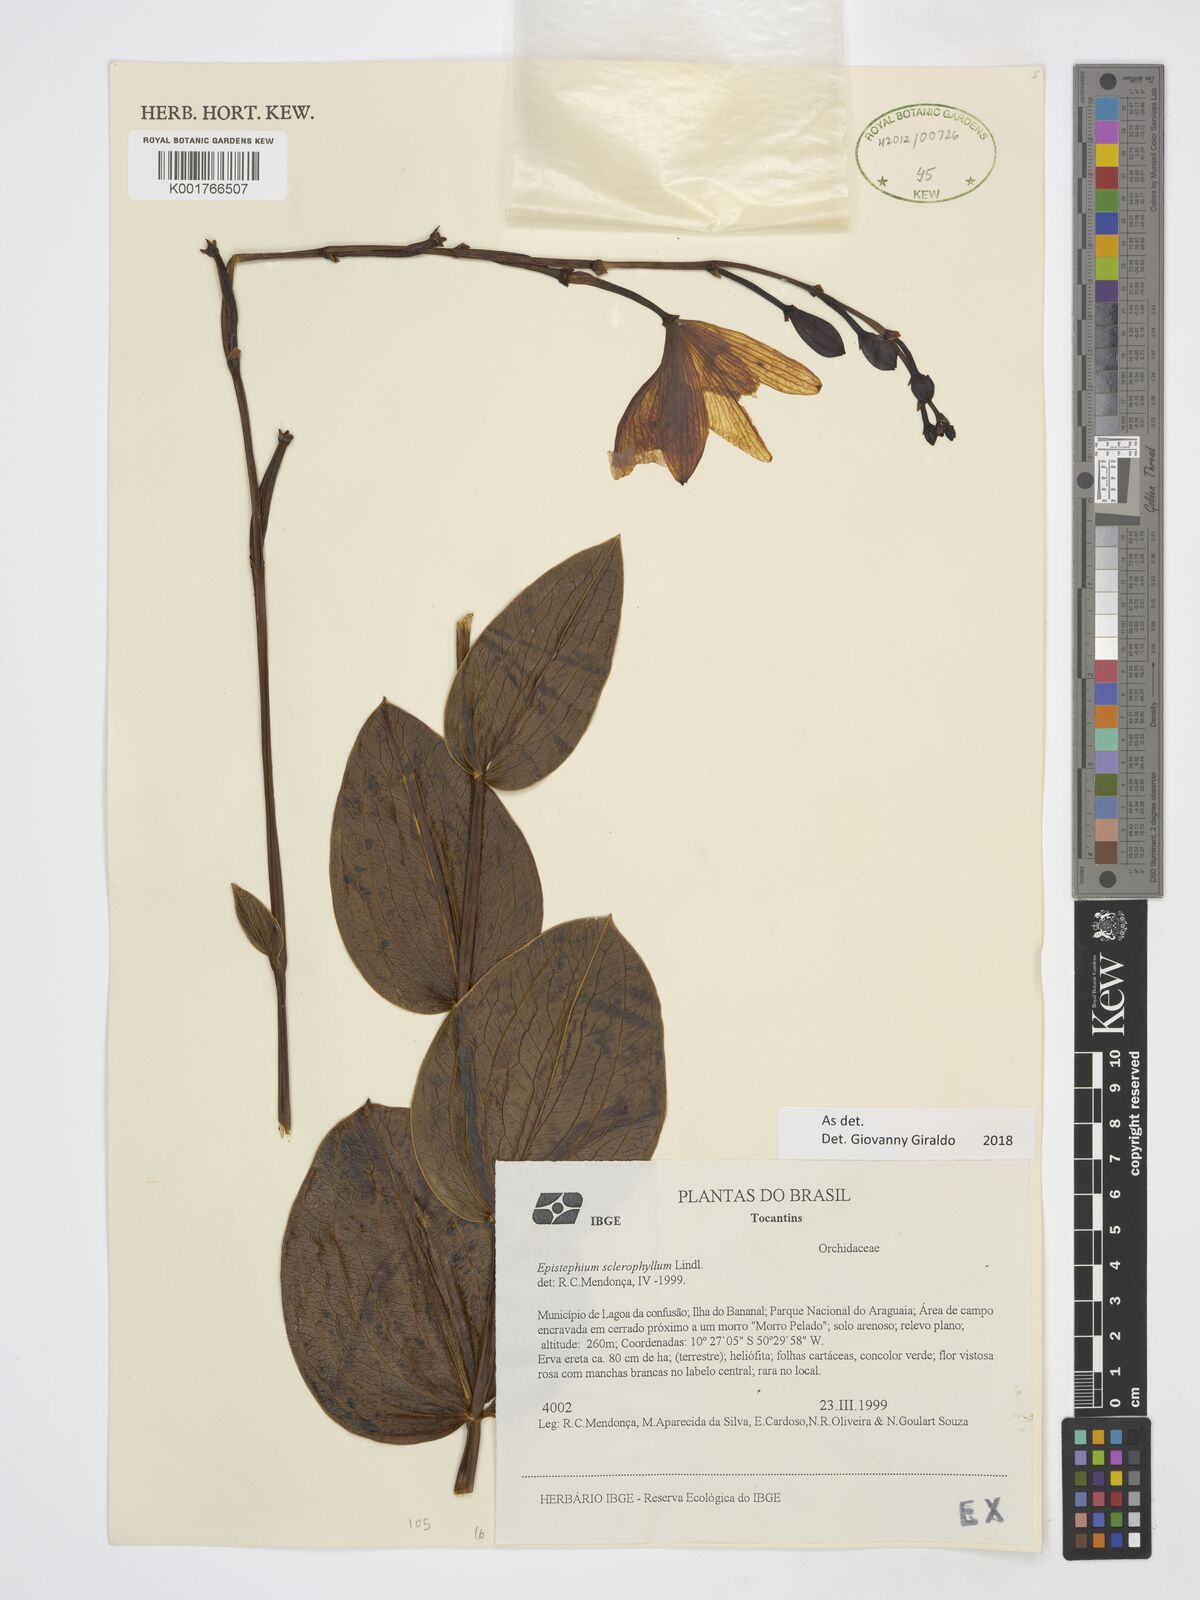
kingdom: Plantae
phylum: Tracheophyta
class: Liliopsida
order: Asparagales
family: Orchidaceae
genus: Epistephium
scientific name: Epistephium sclerophyllum
